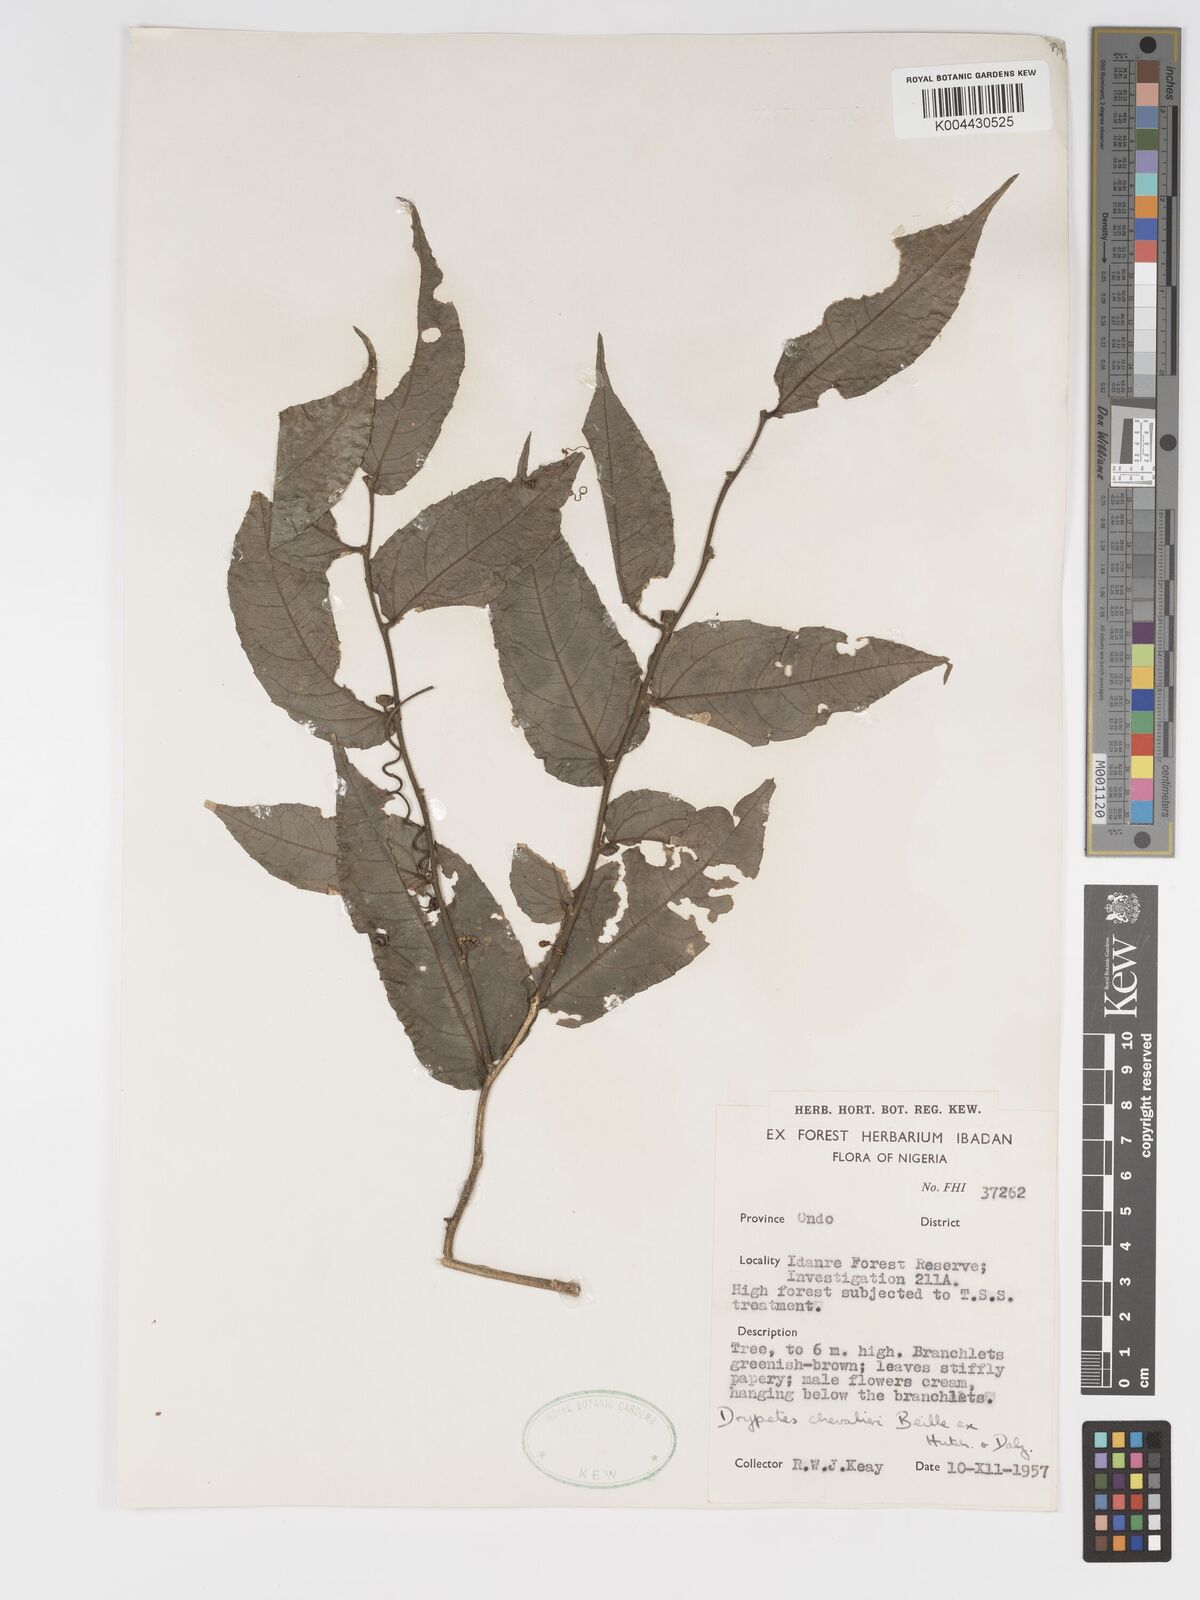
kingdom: Plantae
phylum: Tracheophyta
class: Magnoliopsida
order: Malpighiales
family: Putranjivaceae
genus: Drypetes
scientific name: Drypetes chevalieri
